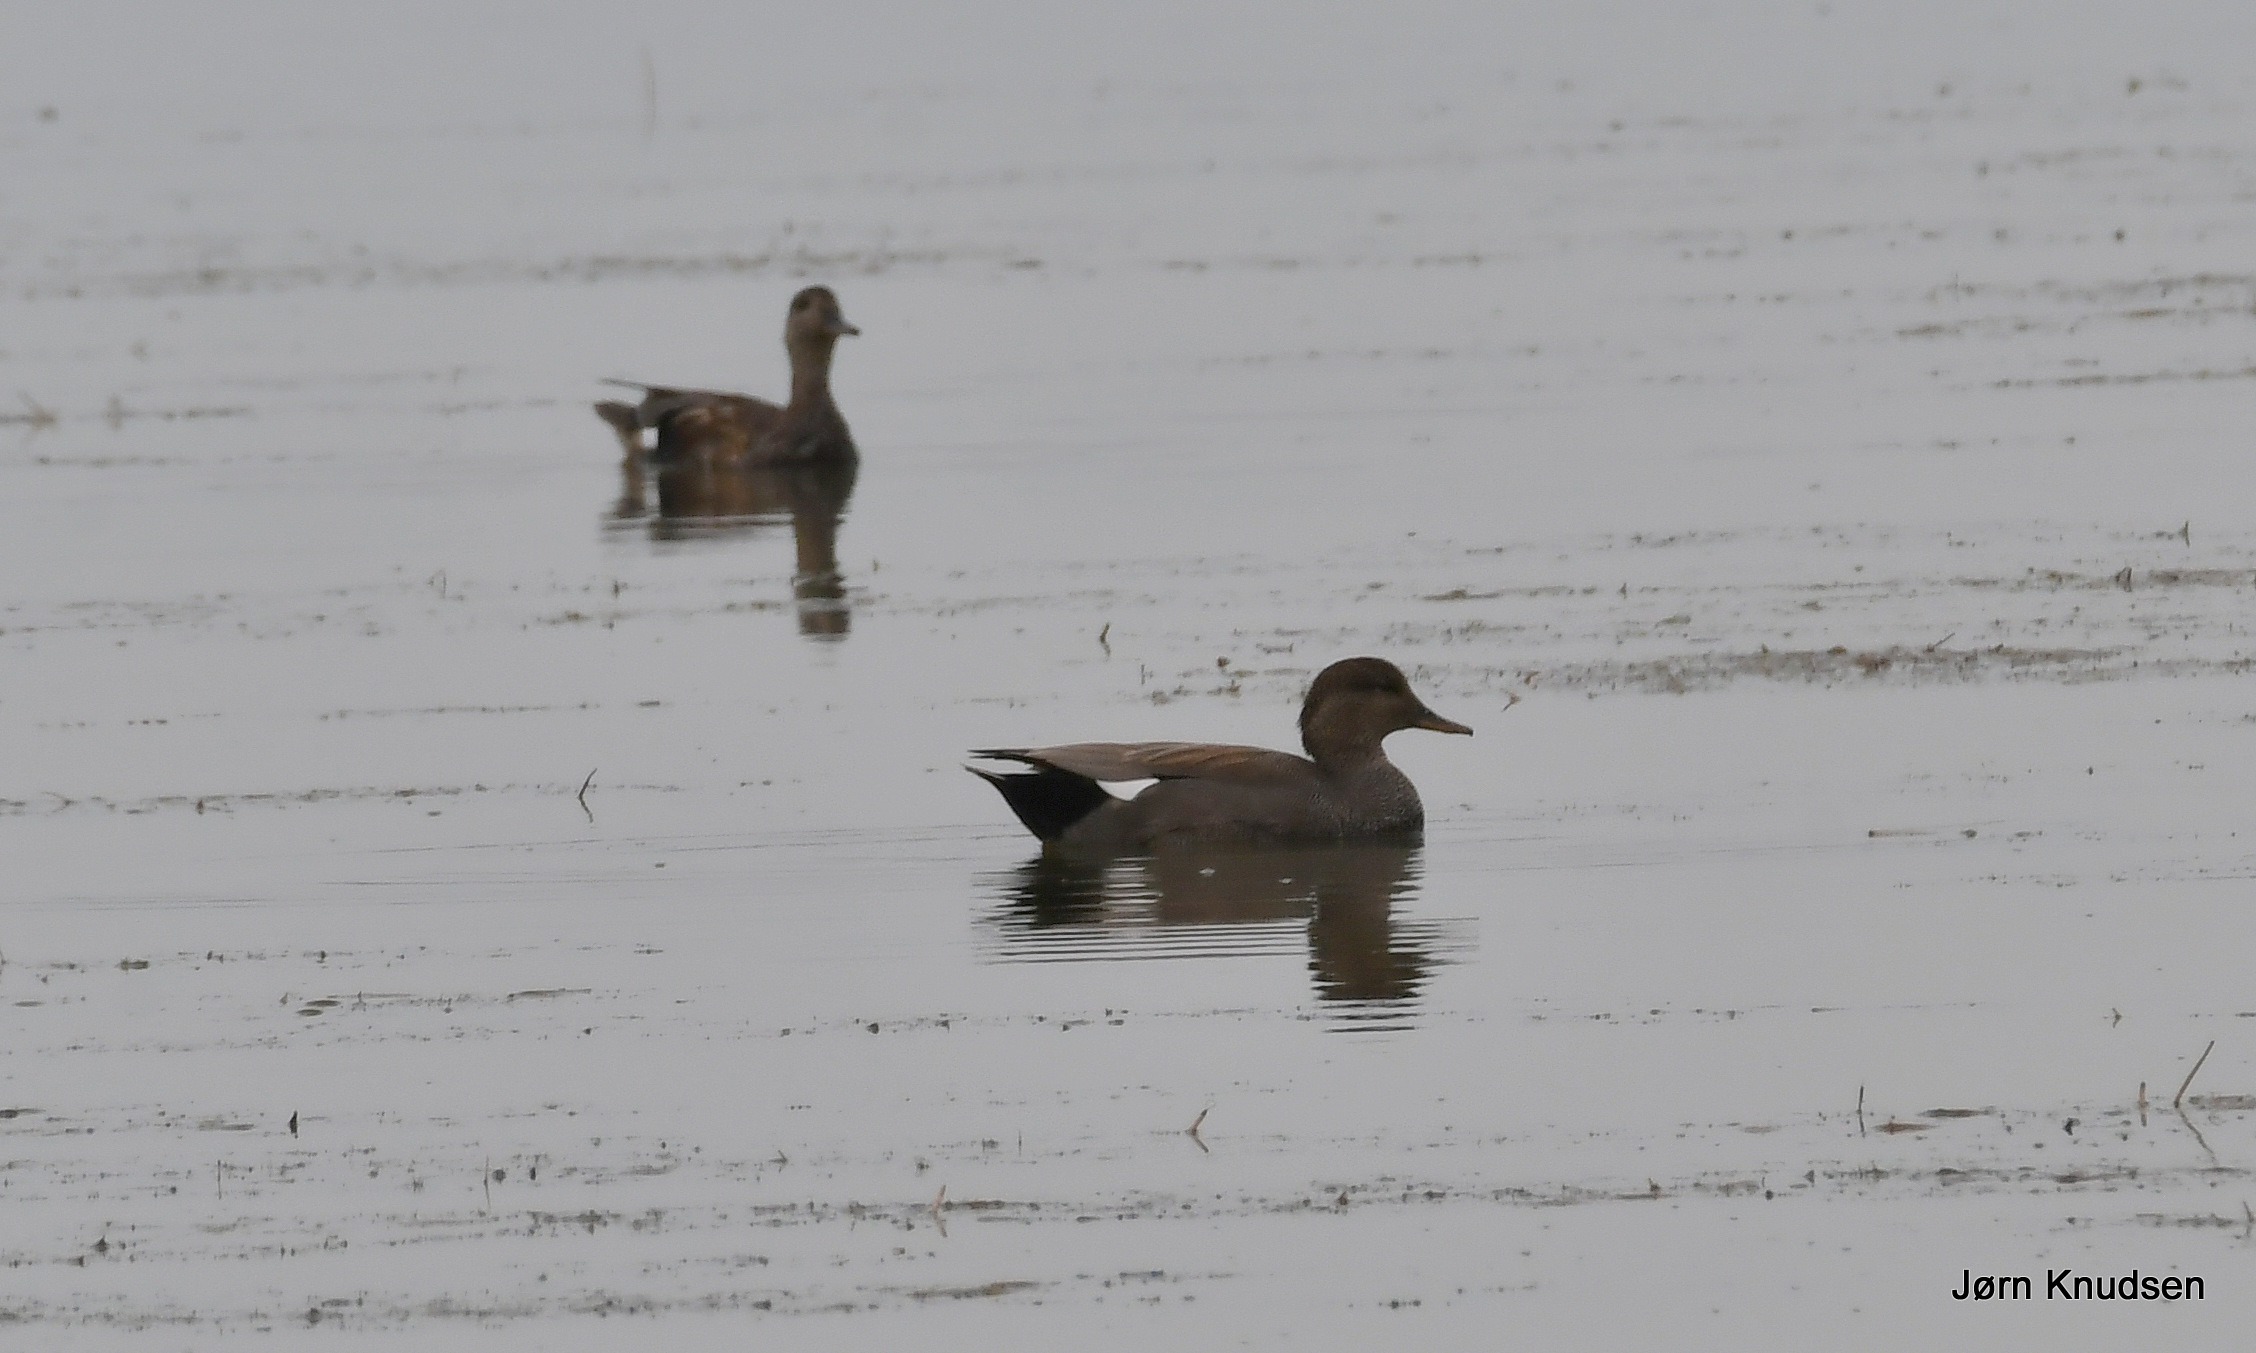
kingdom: Animalia
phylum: Chordata
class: Aves
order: Anseriformes
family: Anatidae
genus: Mareca
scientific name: Mareca strepera
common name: Knarand
